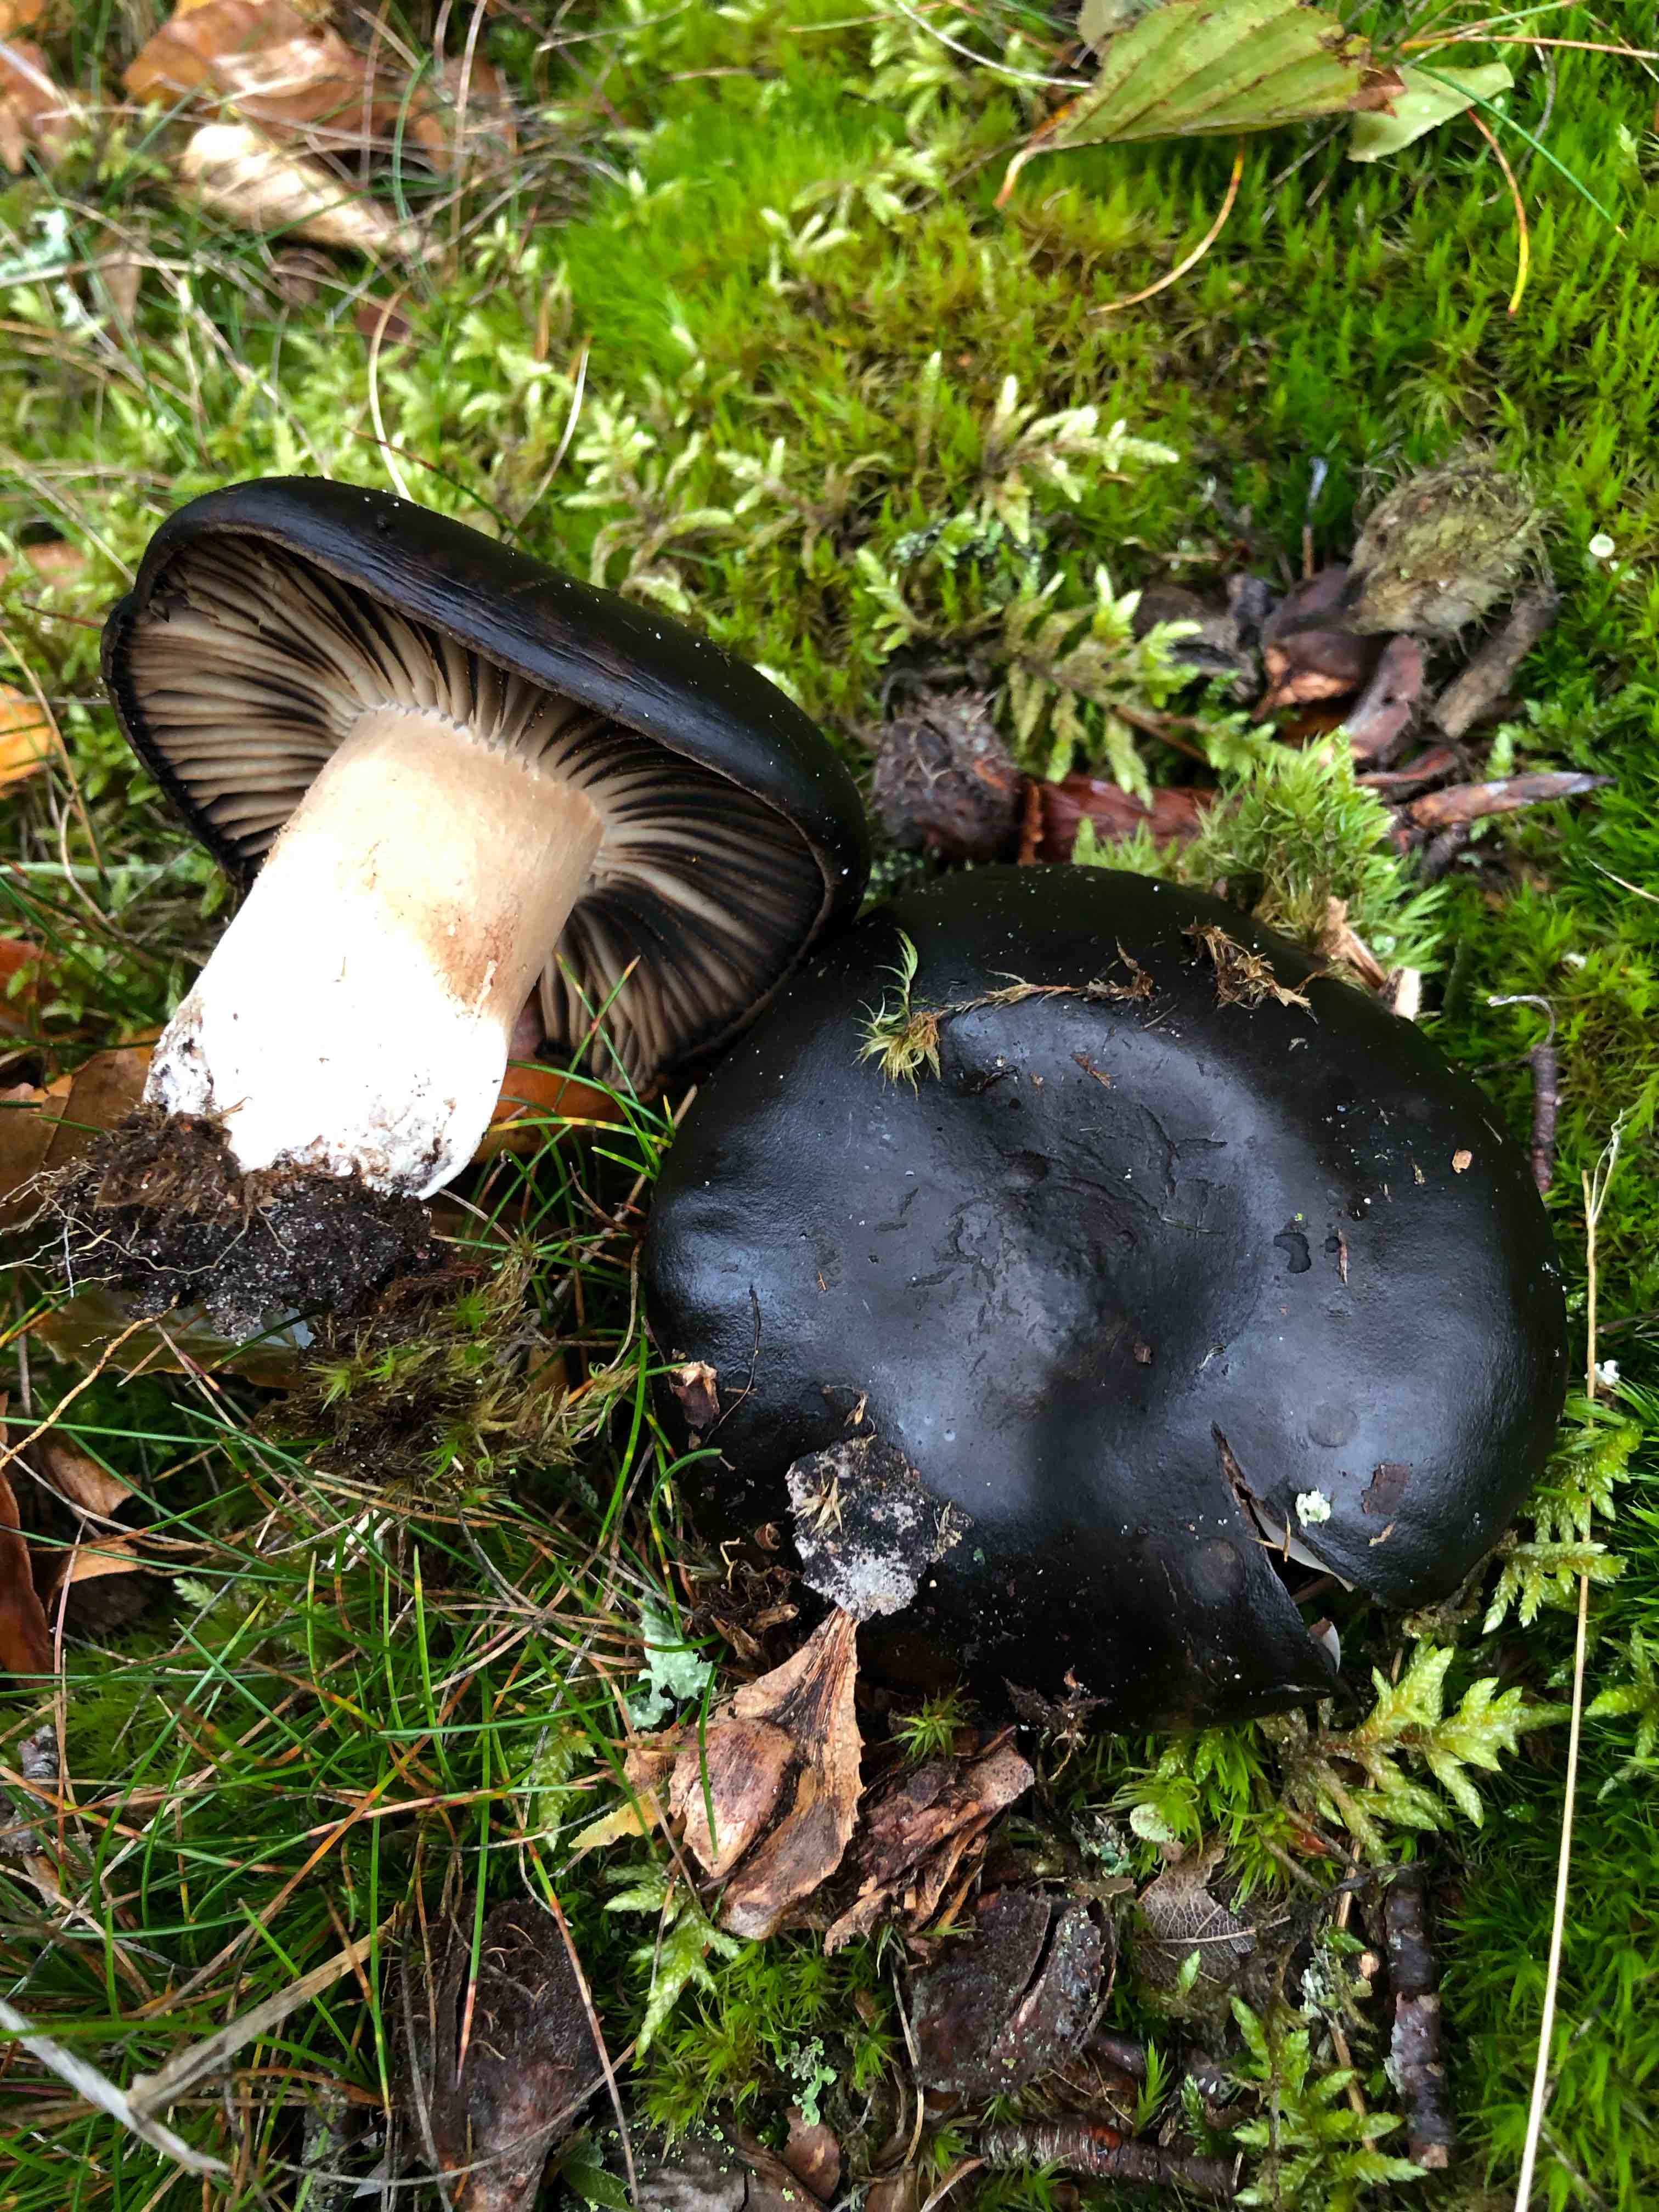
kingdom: Fungi
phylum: Basidiomycota
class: Agaricomycetes
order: Russulales
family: Russulaceae
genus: Russula
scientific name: Russula adusta
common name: sværtende skørhat
